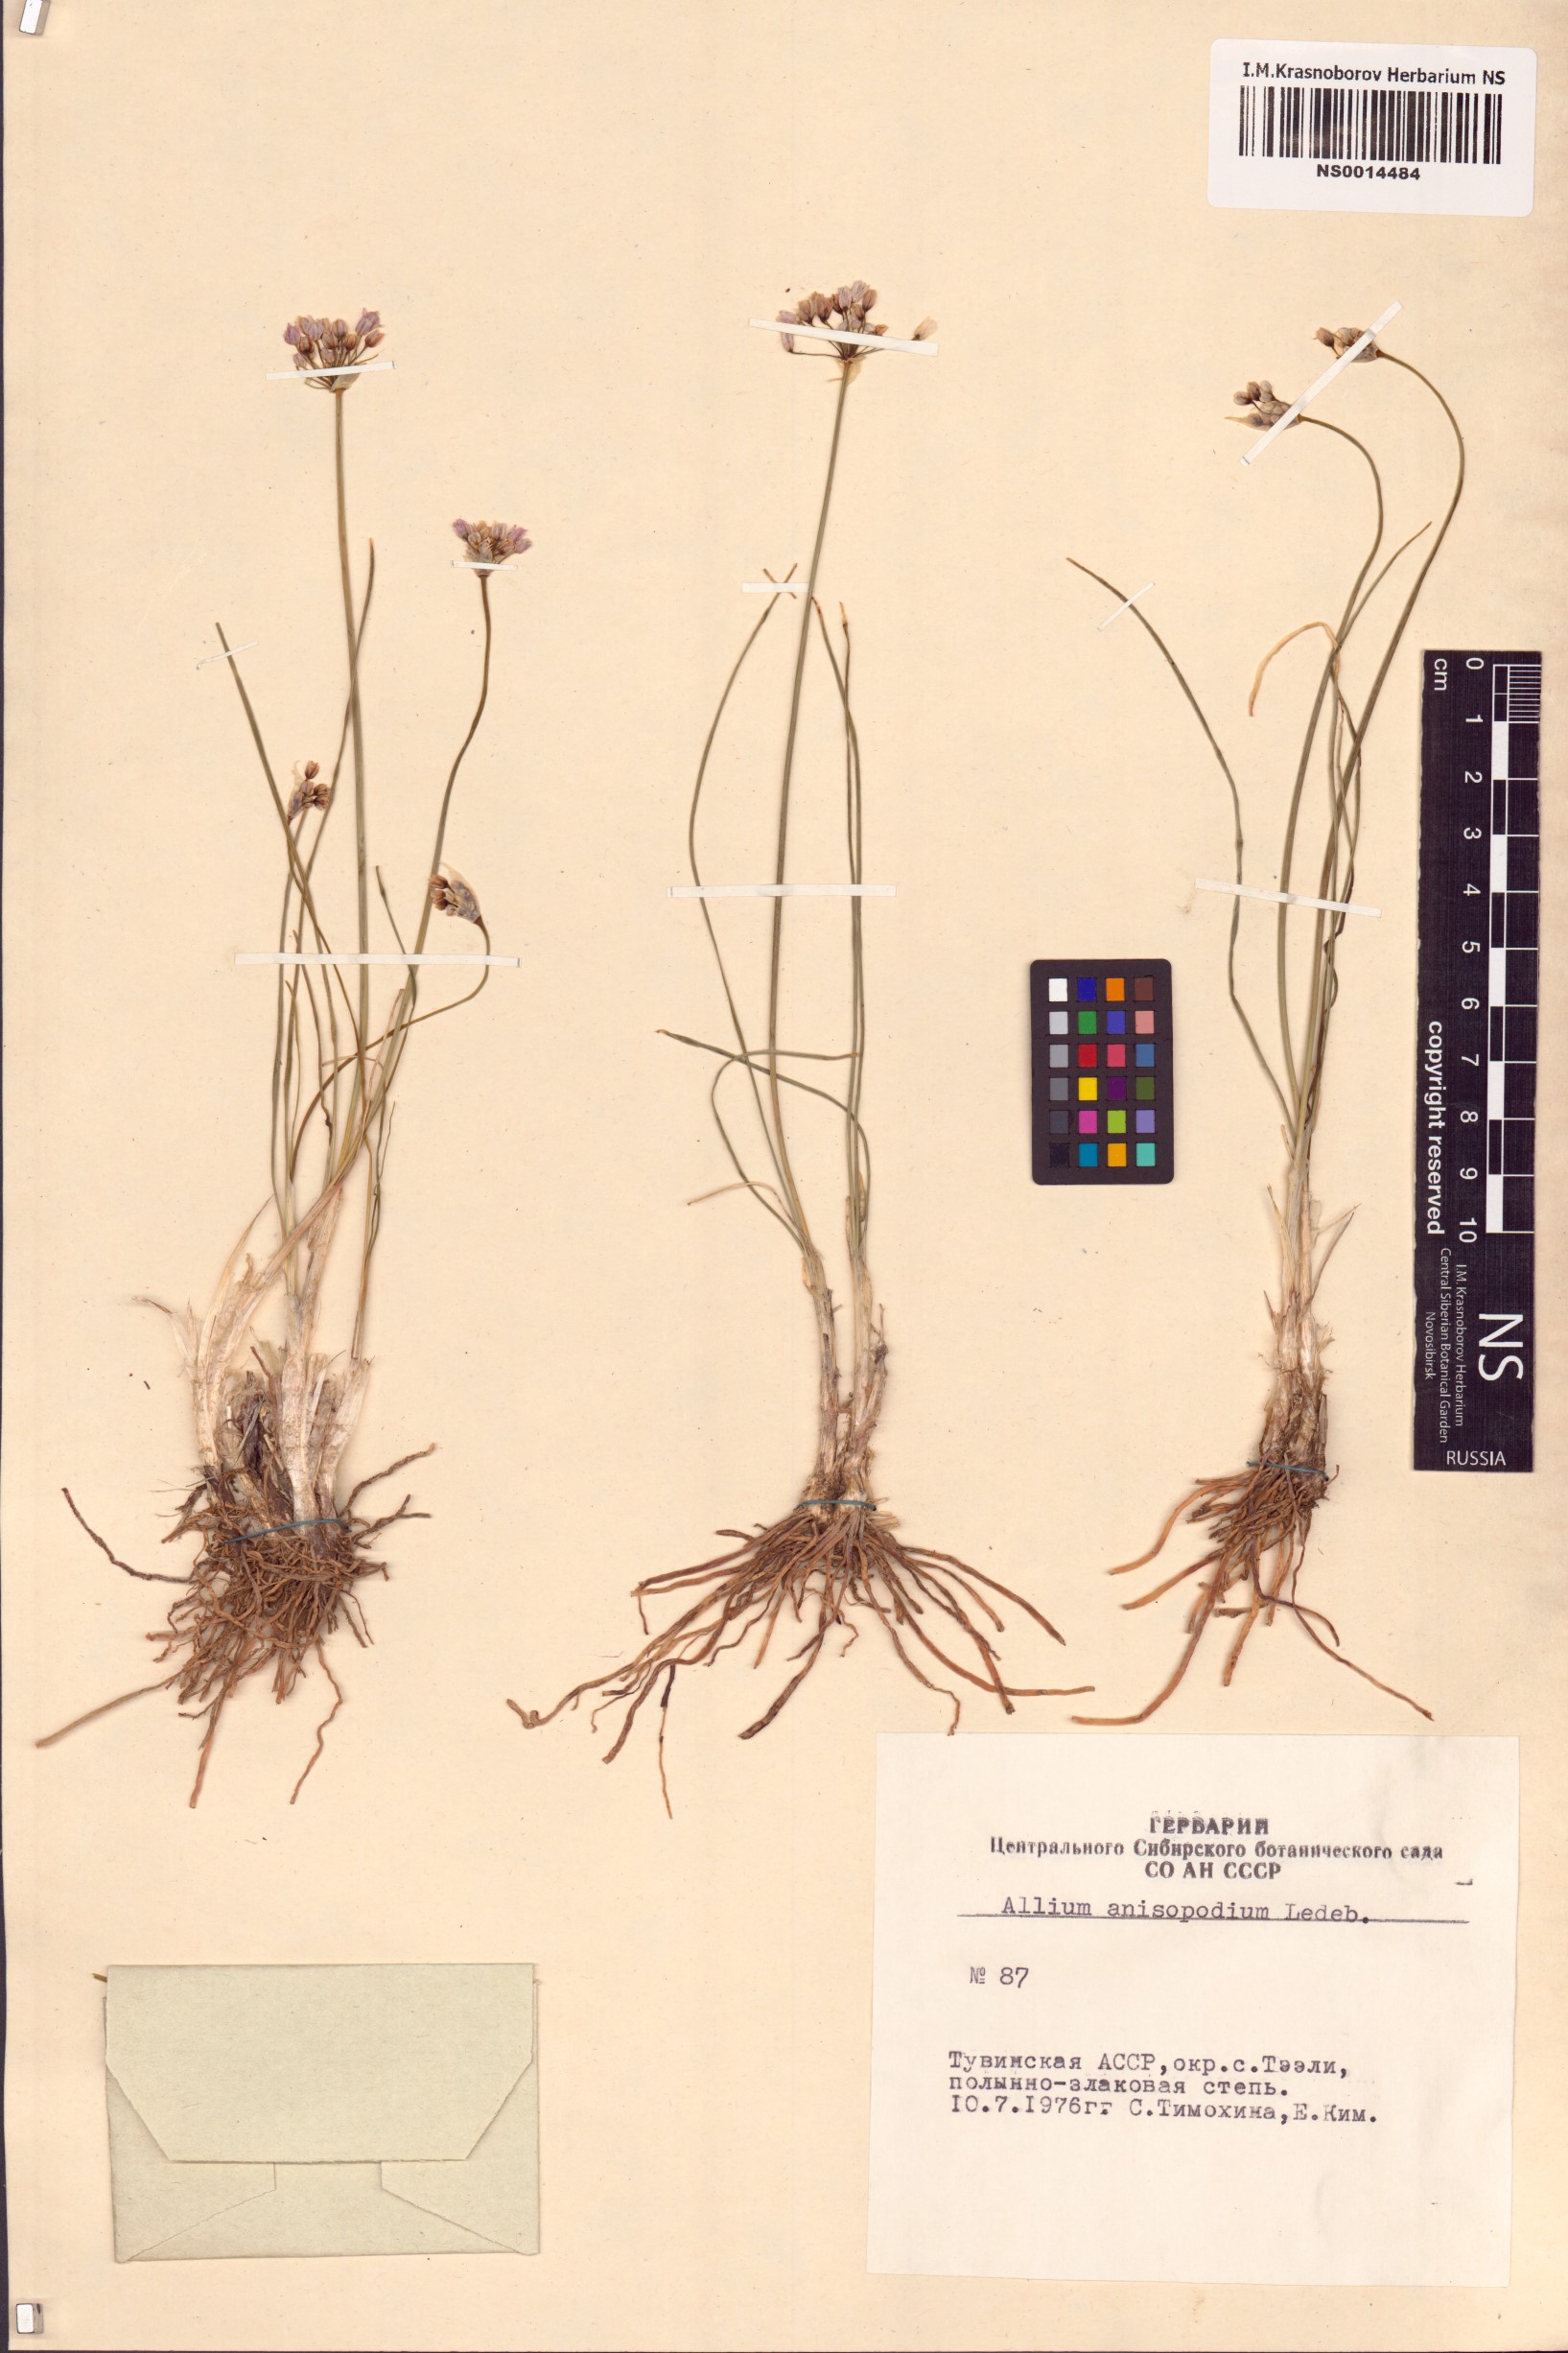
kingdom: Plantae
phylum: Tracheophyta
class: Liliopsida
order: Asparagales
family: Amaryllidaceae
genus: Allium
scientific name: Allium anisopodium
